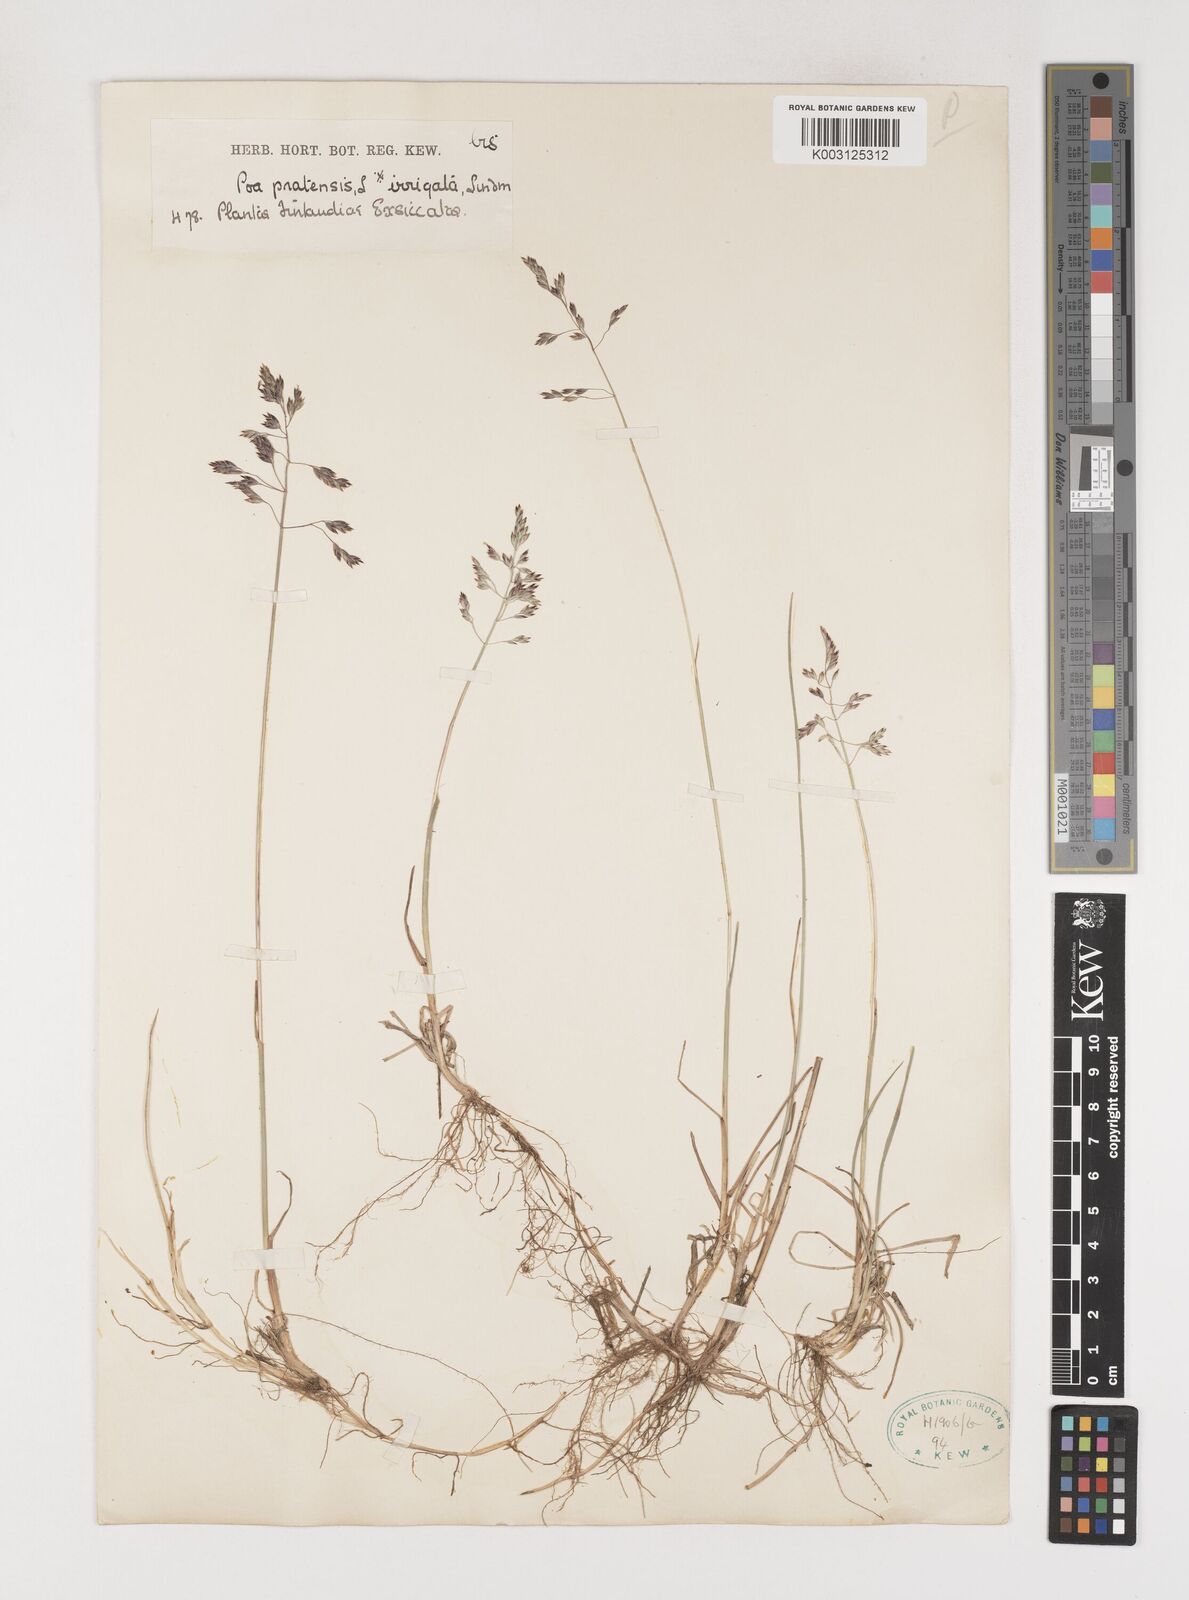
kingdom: Plantae
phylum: Tracheophyta
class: Liliopsida
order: Poales
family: Poaceae
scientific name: Poaceae
